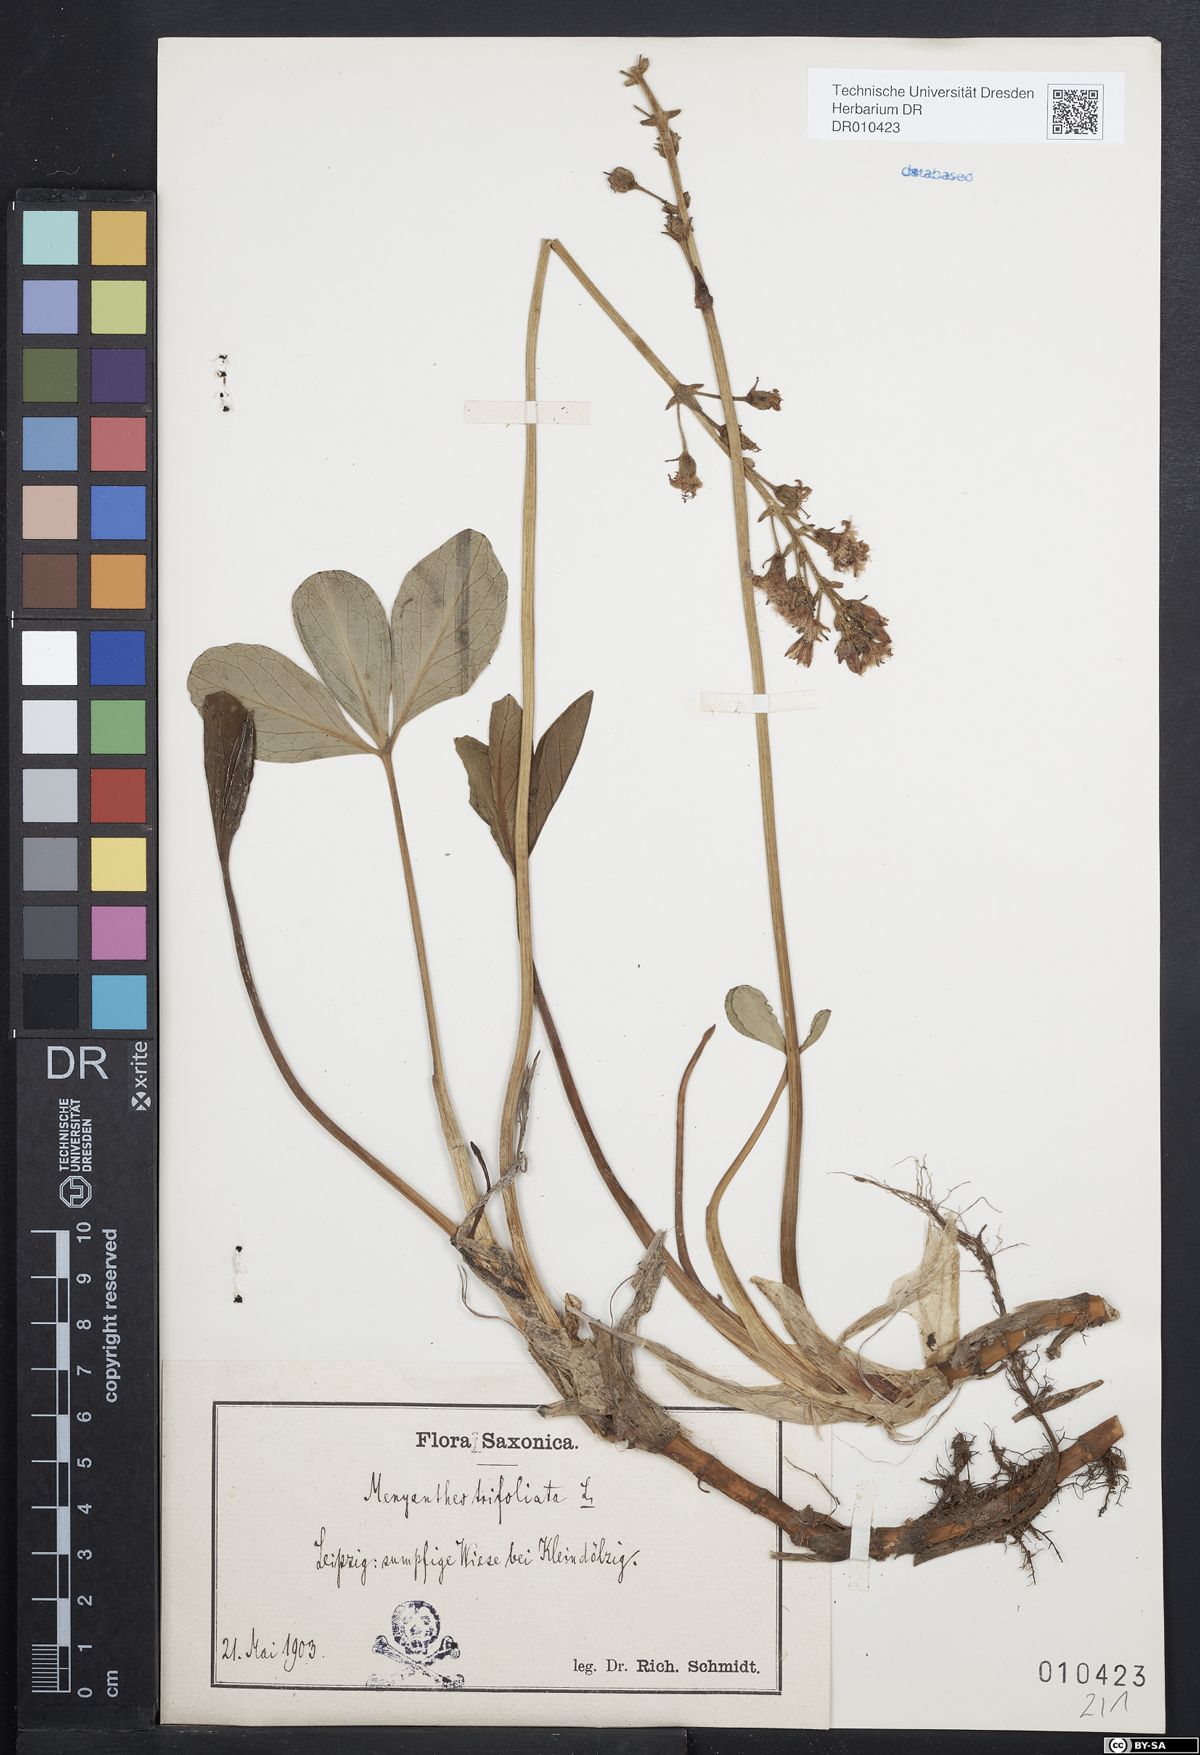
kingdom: Plantae
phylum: Tracheophyta
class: Magnoliopsida
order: Asterales
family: Menyanthaceae
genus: Menyanthes
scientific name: Menyanthes trifoliata
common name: Bogbean
